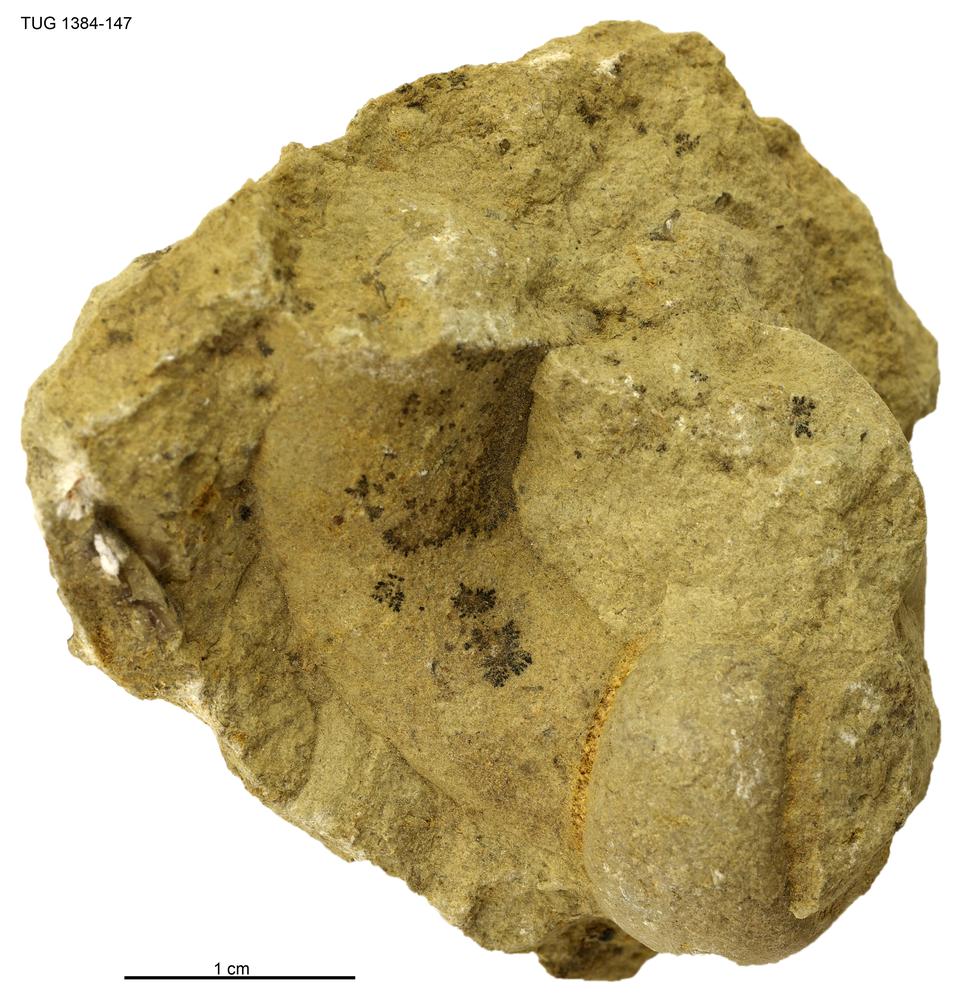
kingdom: Animalia
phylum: Arthropoda
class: Trilobita
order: Asaphida
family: Asaphidae
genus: Asaphus
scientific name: Asaphus
